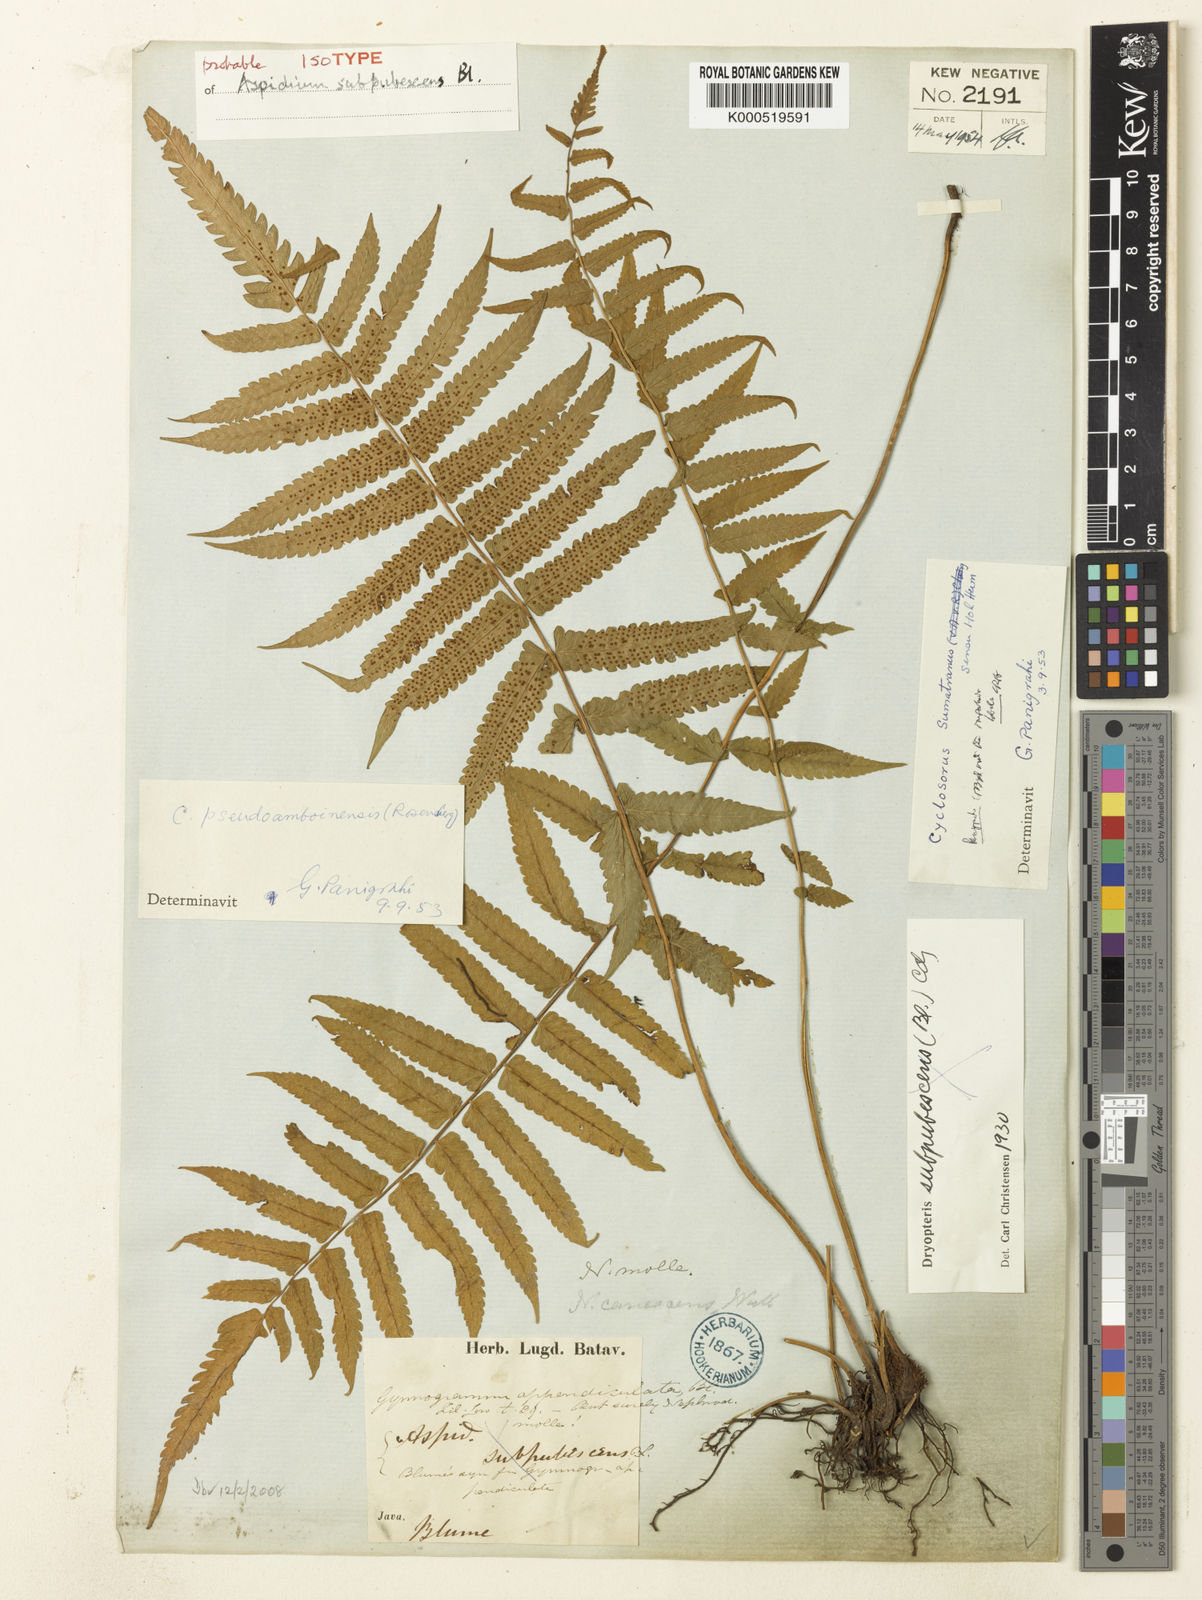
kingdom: Plantae
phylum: Tracheophyta
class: Polypodiopsida
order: Polypodiales
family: Thelypteridaceae
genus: Christella
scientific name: Christella subpubescens
